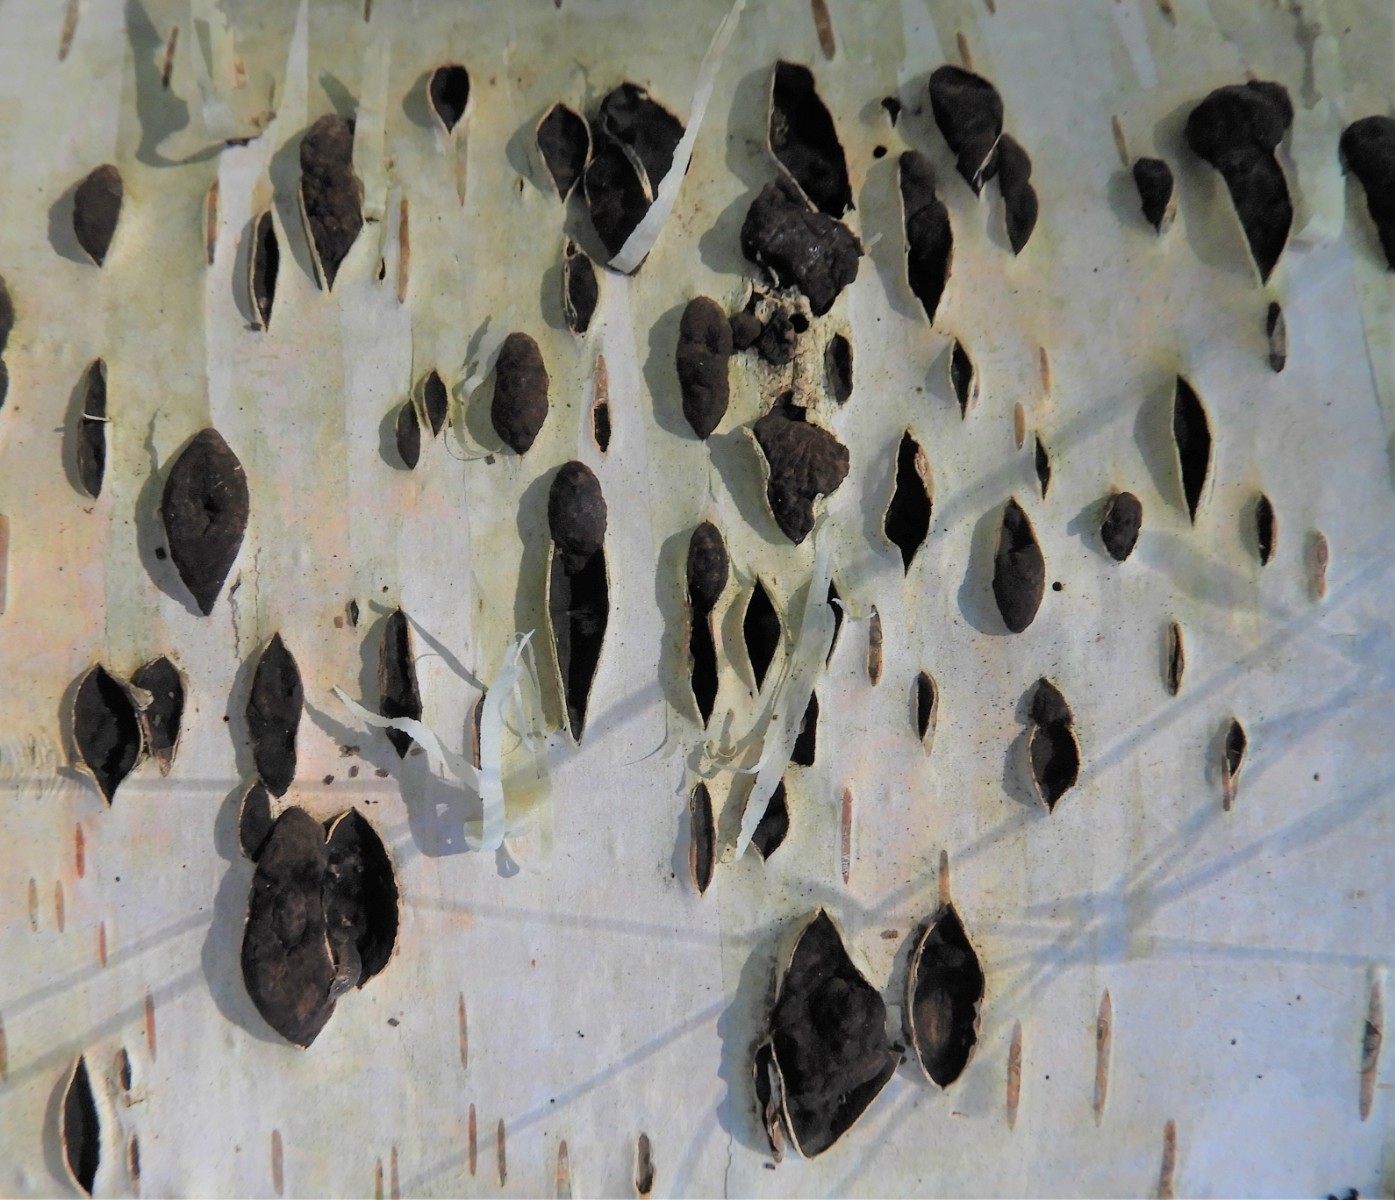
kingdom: Fungi
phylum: Ascomycota
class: Sordariomycetes
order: Xylariales
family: Hypoxylaceae
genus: Jackrogersella
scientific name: Jackrogersella multiformis
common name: foranderlig kulbær
